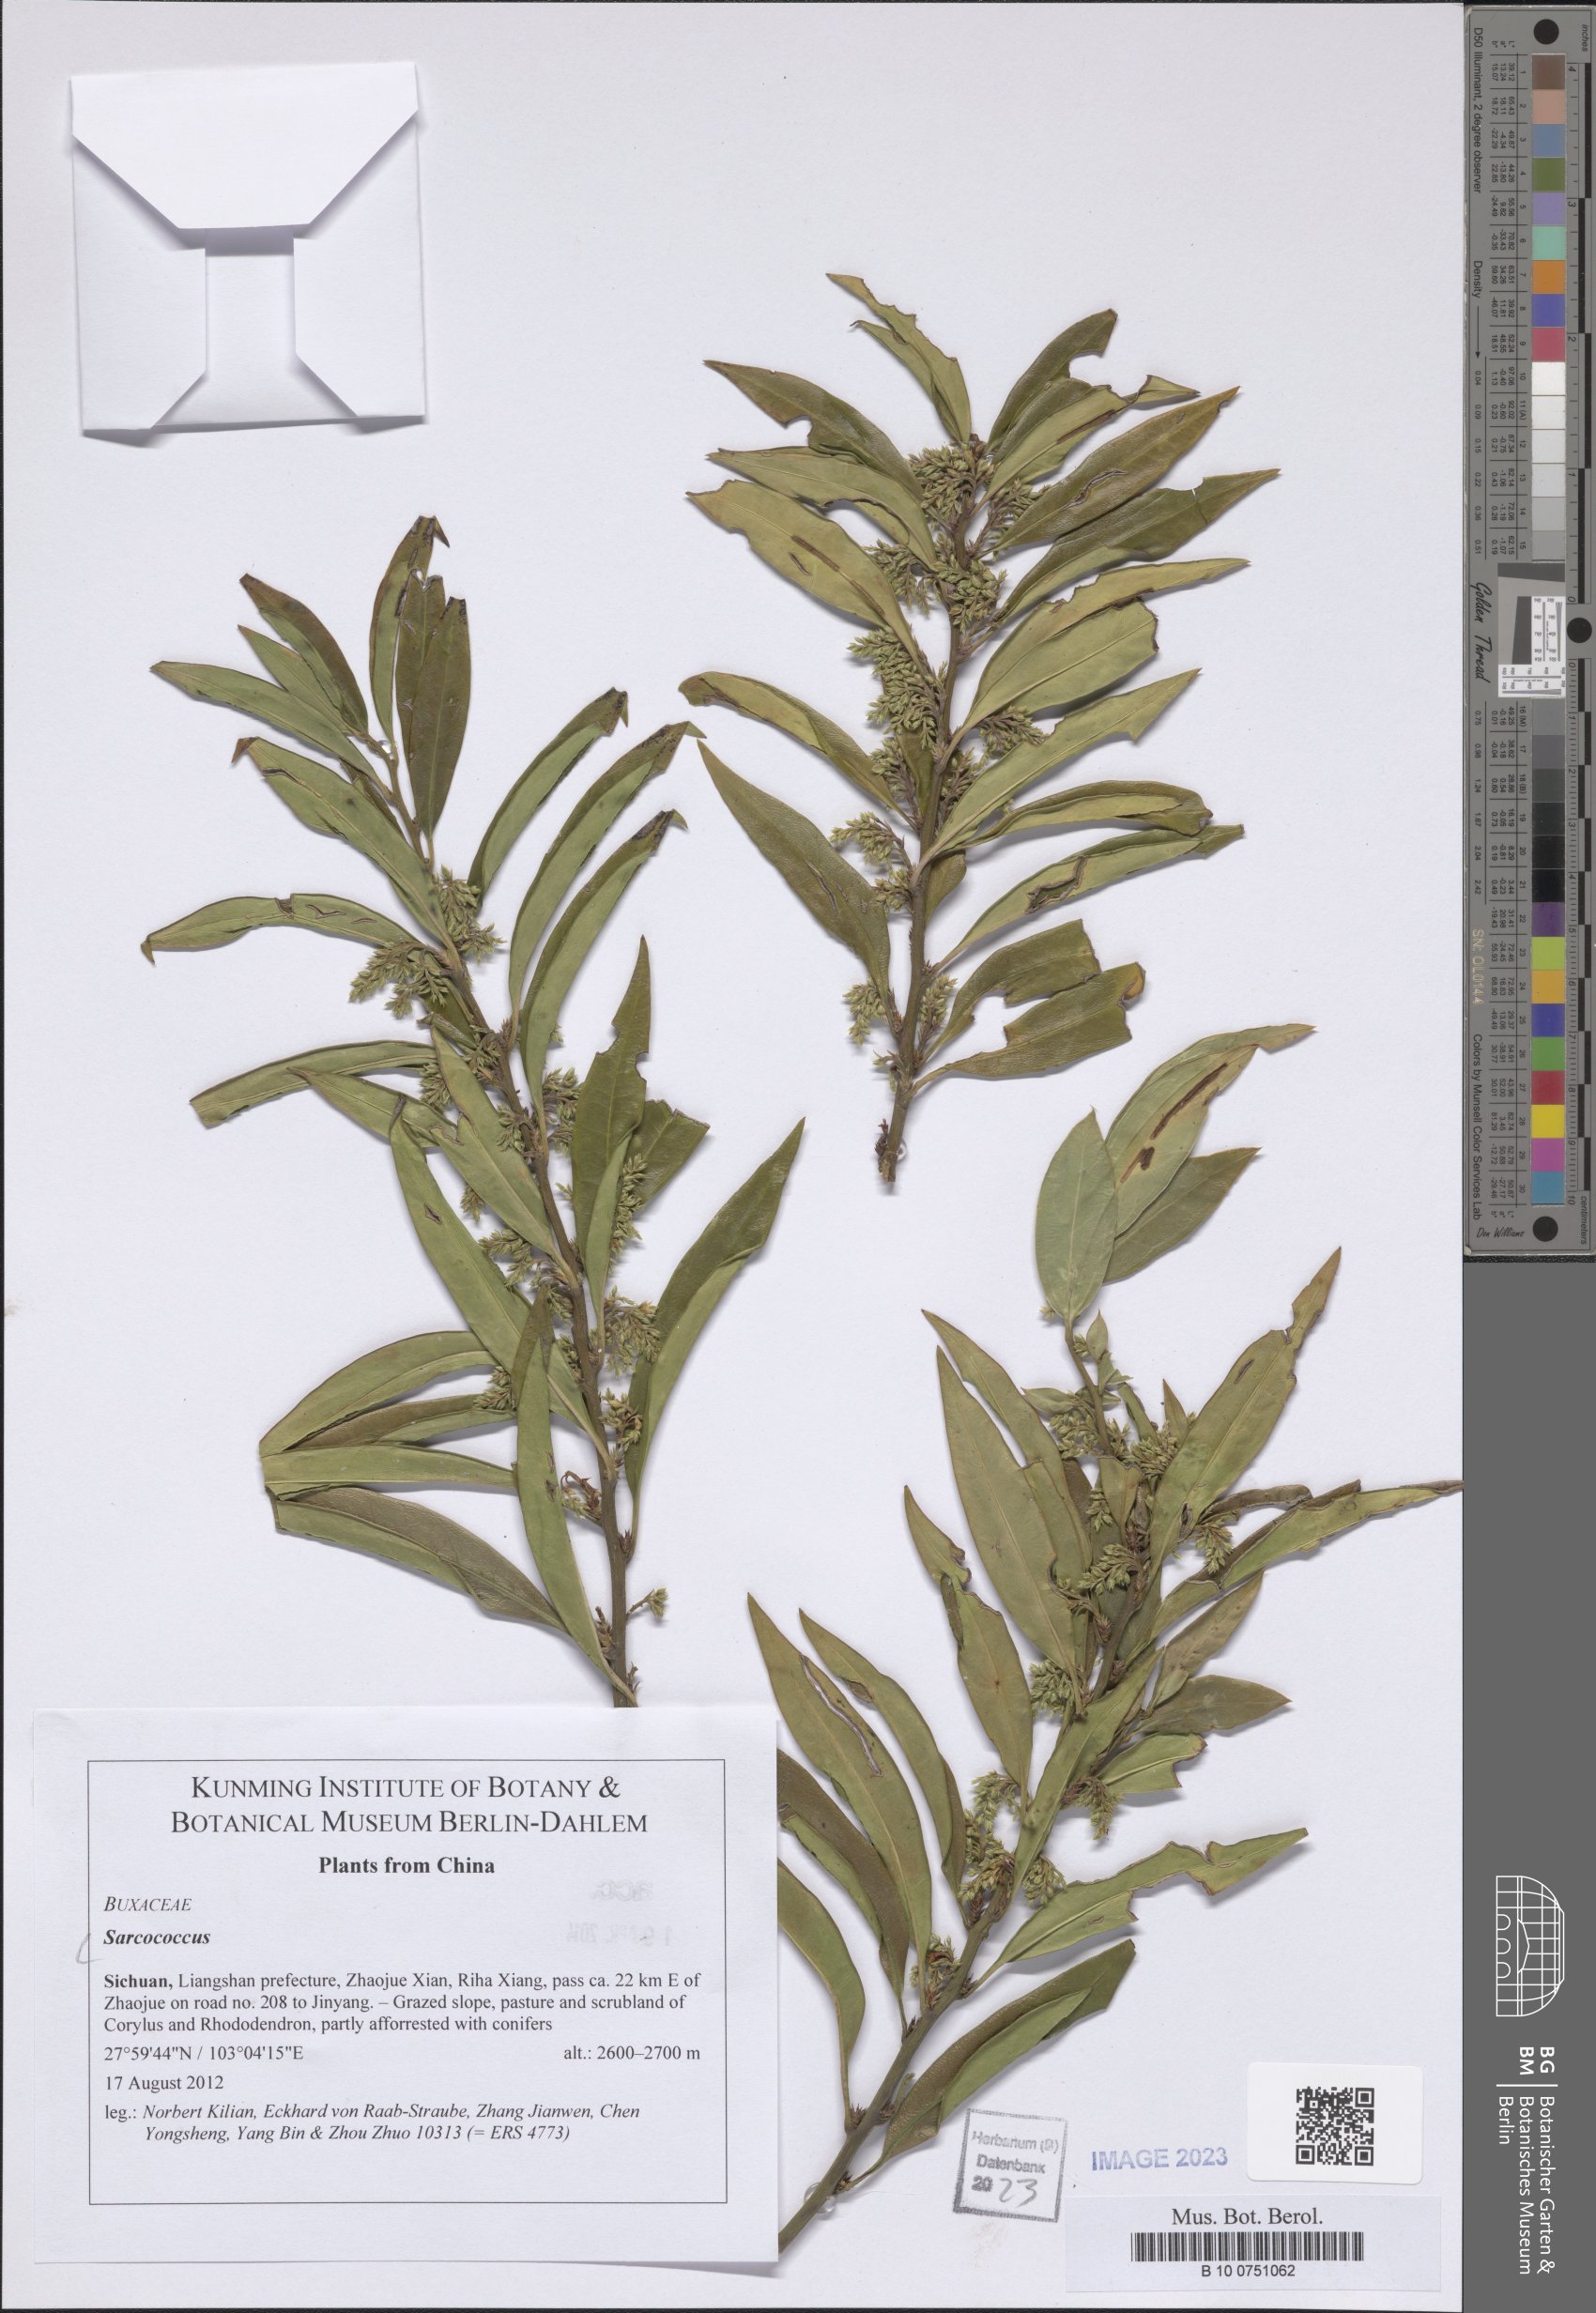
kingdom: Plantae
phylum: Tracheophyta
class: Magnoliopsida
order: Buxales
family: Buxaceae
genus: Sarcococca
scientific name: Sarcococca
